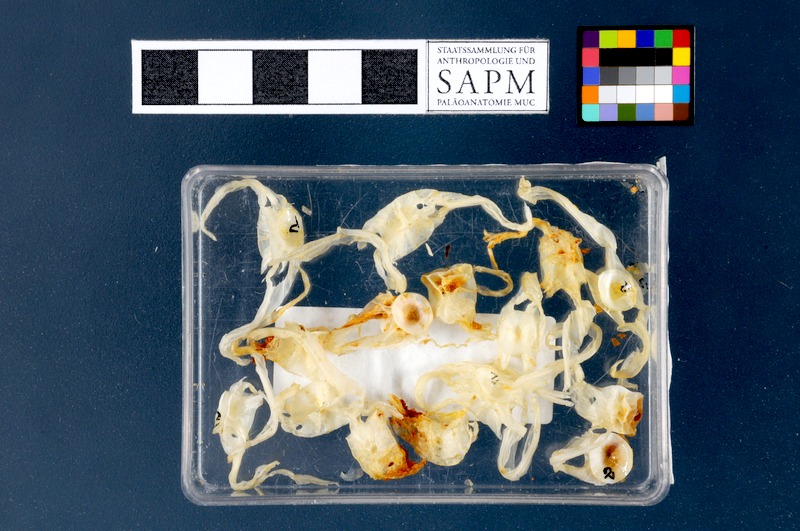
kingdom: Animalia
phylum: Chordata
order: Scorpaeniformes
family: Cyclopteridae
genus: Cyclopterus
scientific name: Cyclopterus lumpus
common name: Lumpsucker
